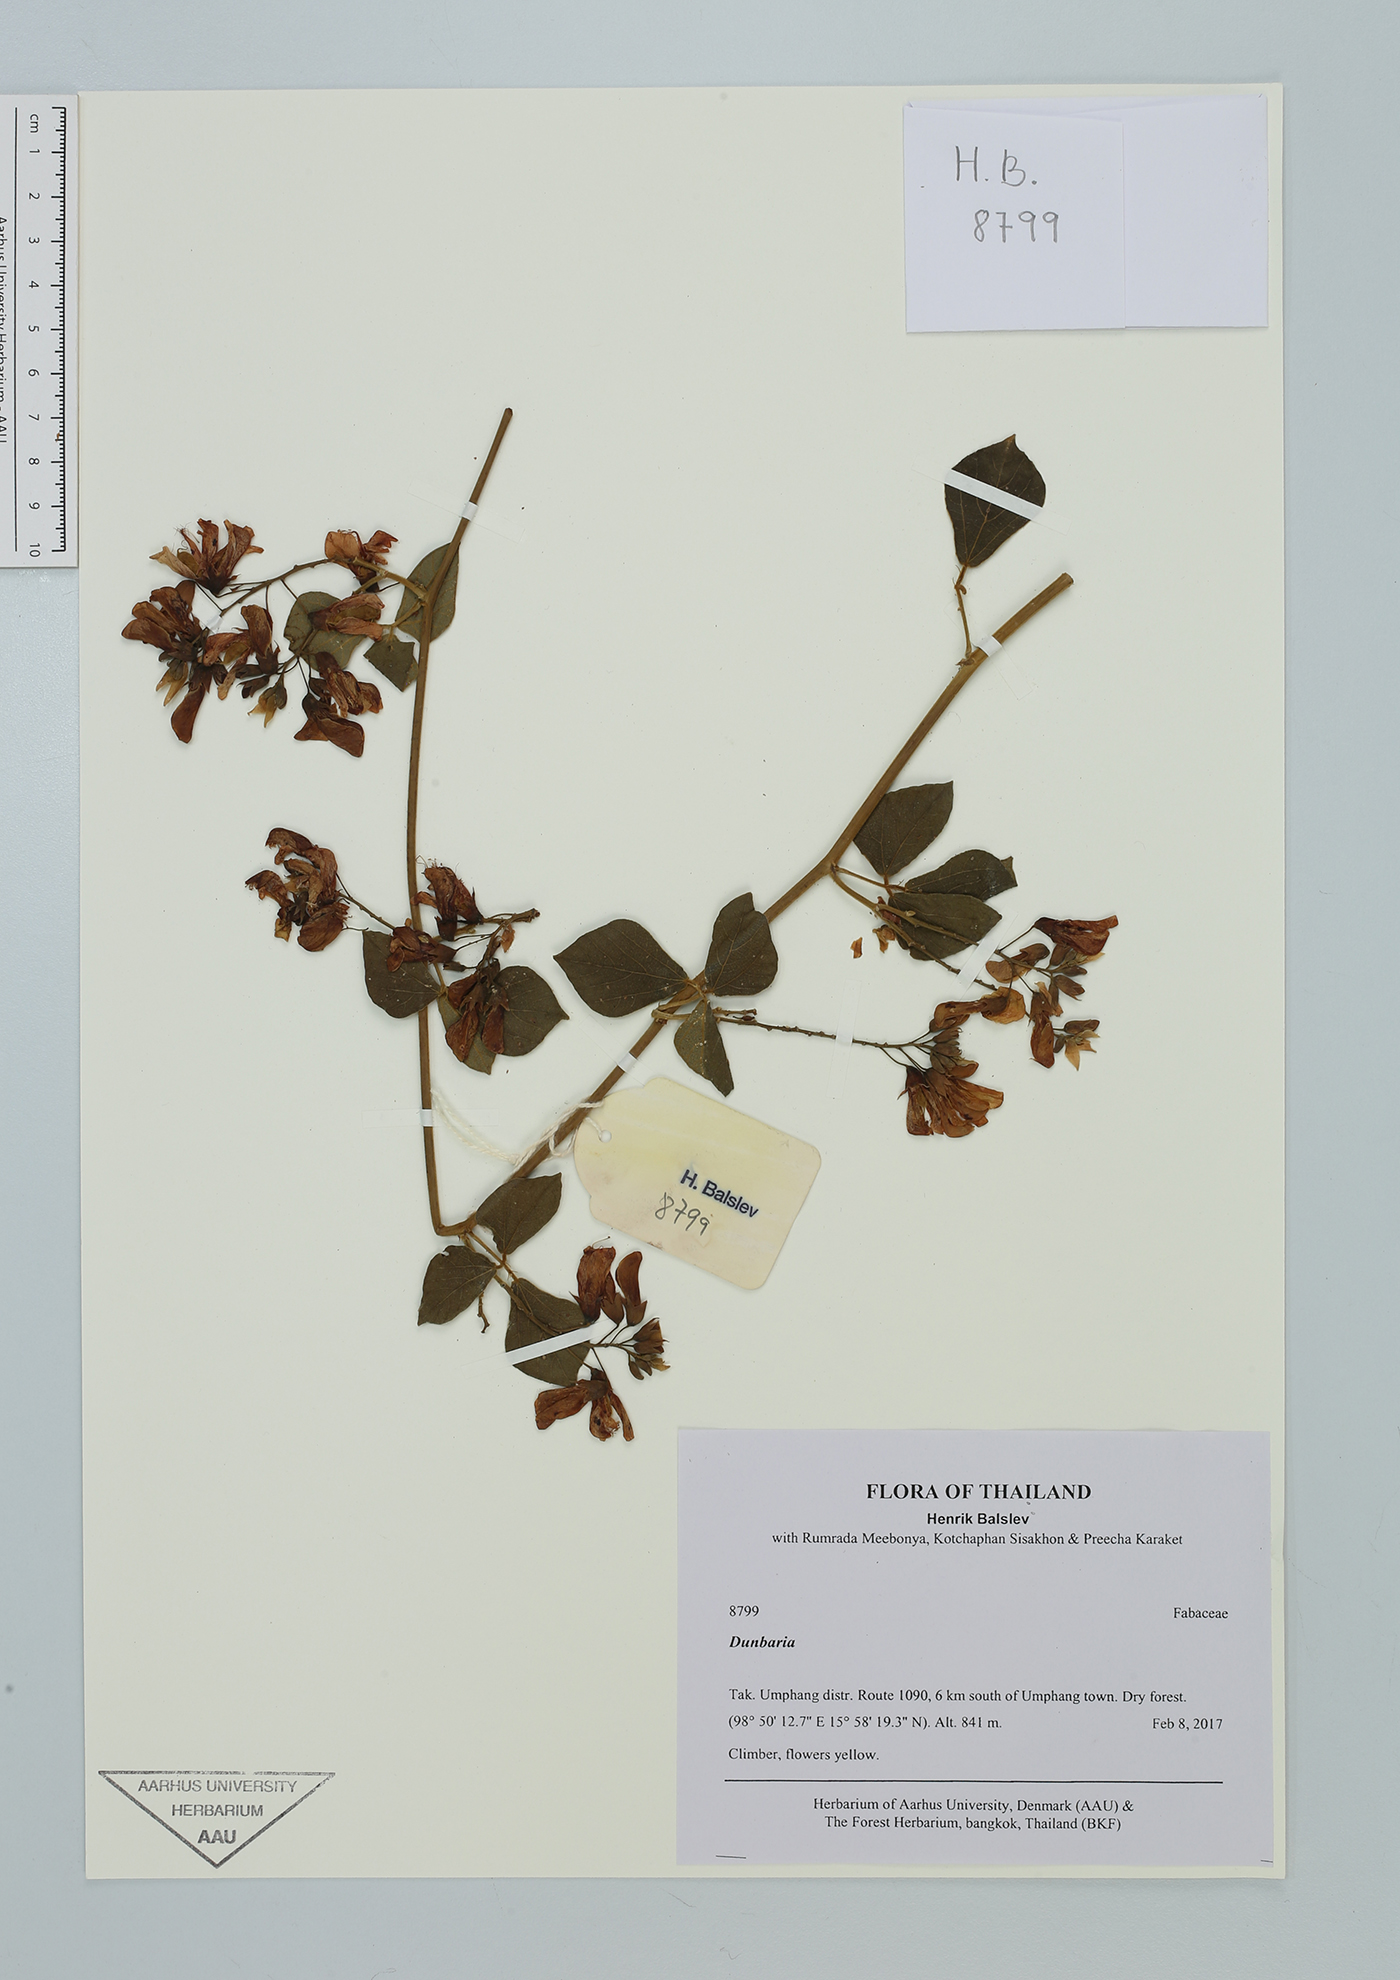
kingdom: Plantae
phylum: Tracheophyta
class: Magnoliopsida
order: Fabales
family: Fabaceae
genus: Dunbaria
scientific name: Dunbaria
